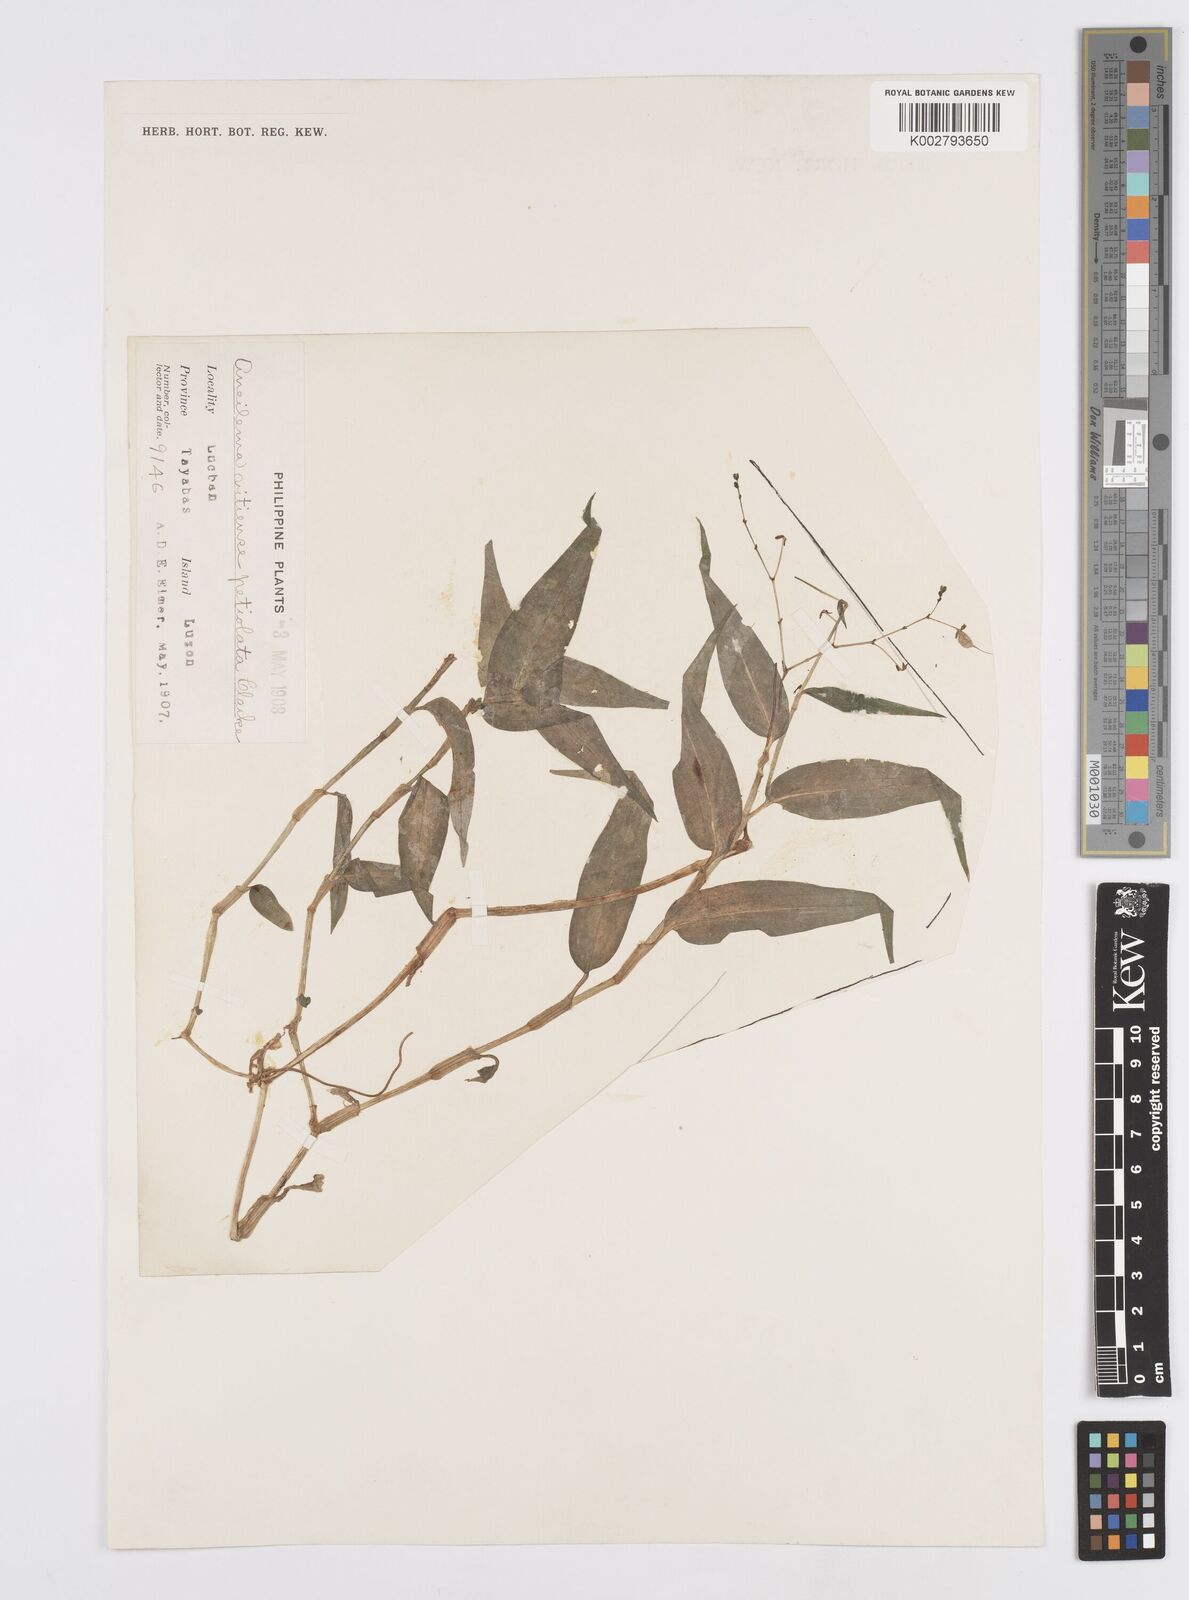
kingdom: Plantae
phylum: Tracheophyta
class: Liliopsida
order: Commelinales
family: Commelinaceae
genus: Murdannia
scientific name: Murdannia
